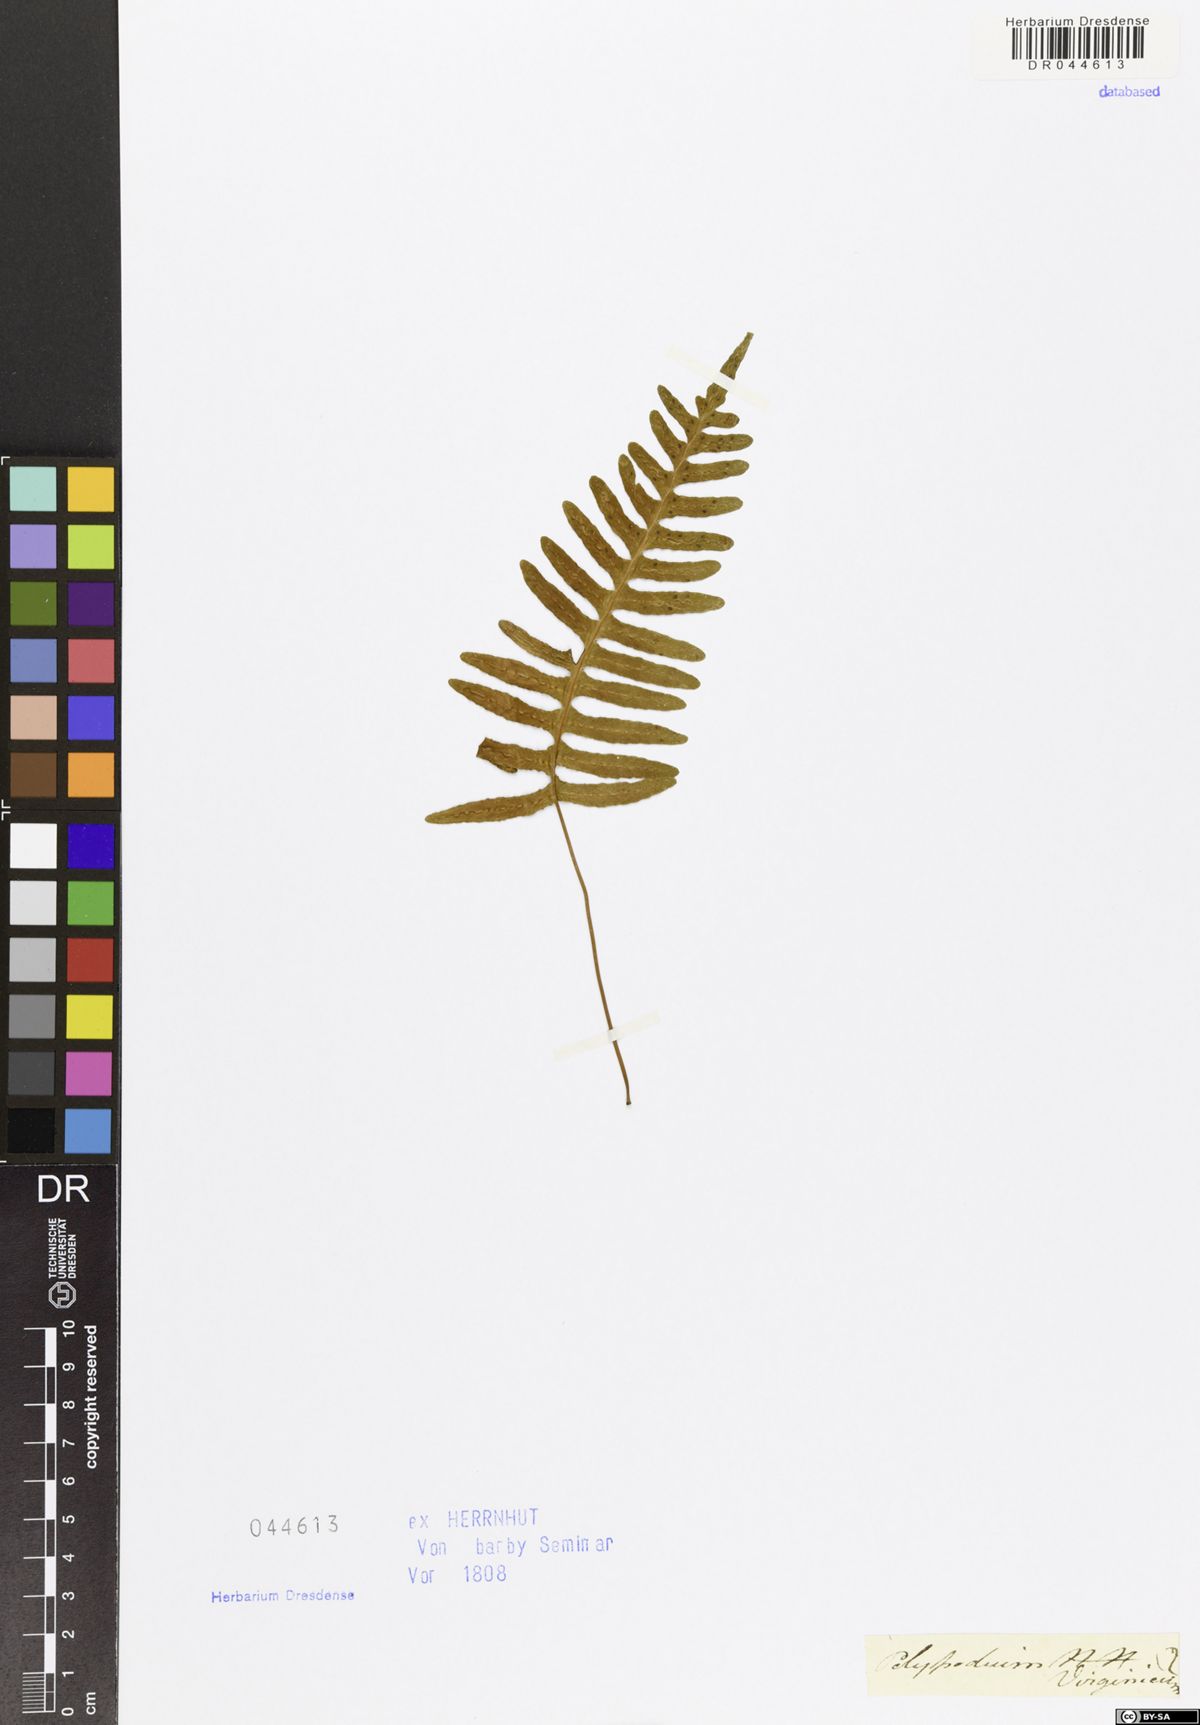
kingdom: Plantae
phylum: Tracheophyta
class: Polypodiopsida
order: Polypodiales
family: Polypodiaceae
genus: Polypodium
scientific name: Polypodium virginianum
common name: American wall fern
